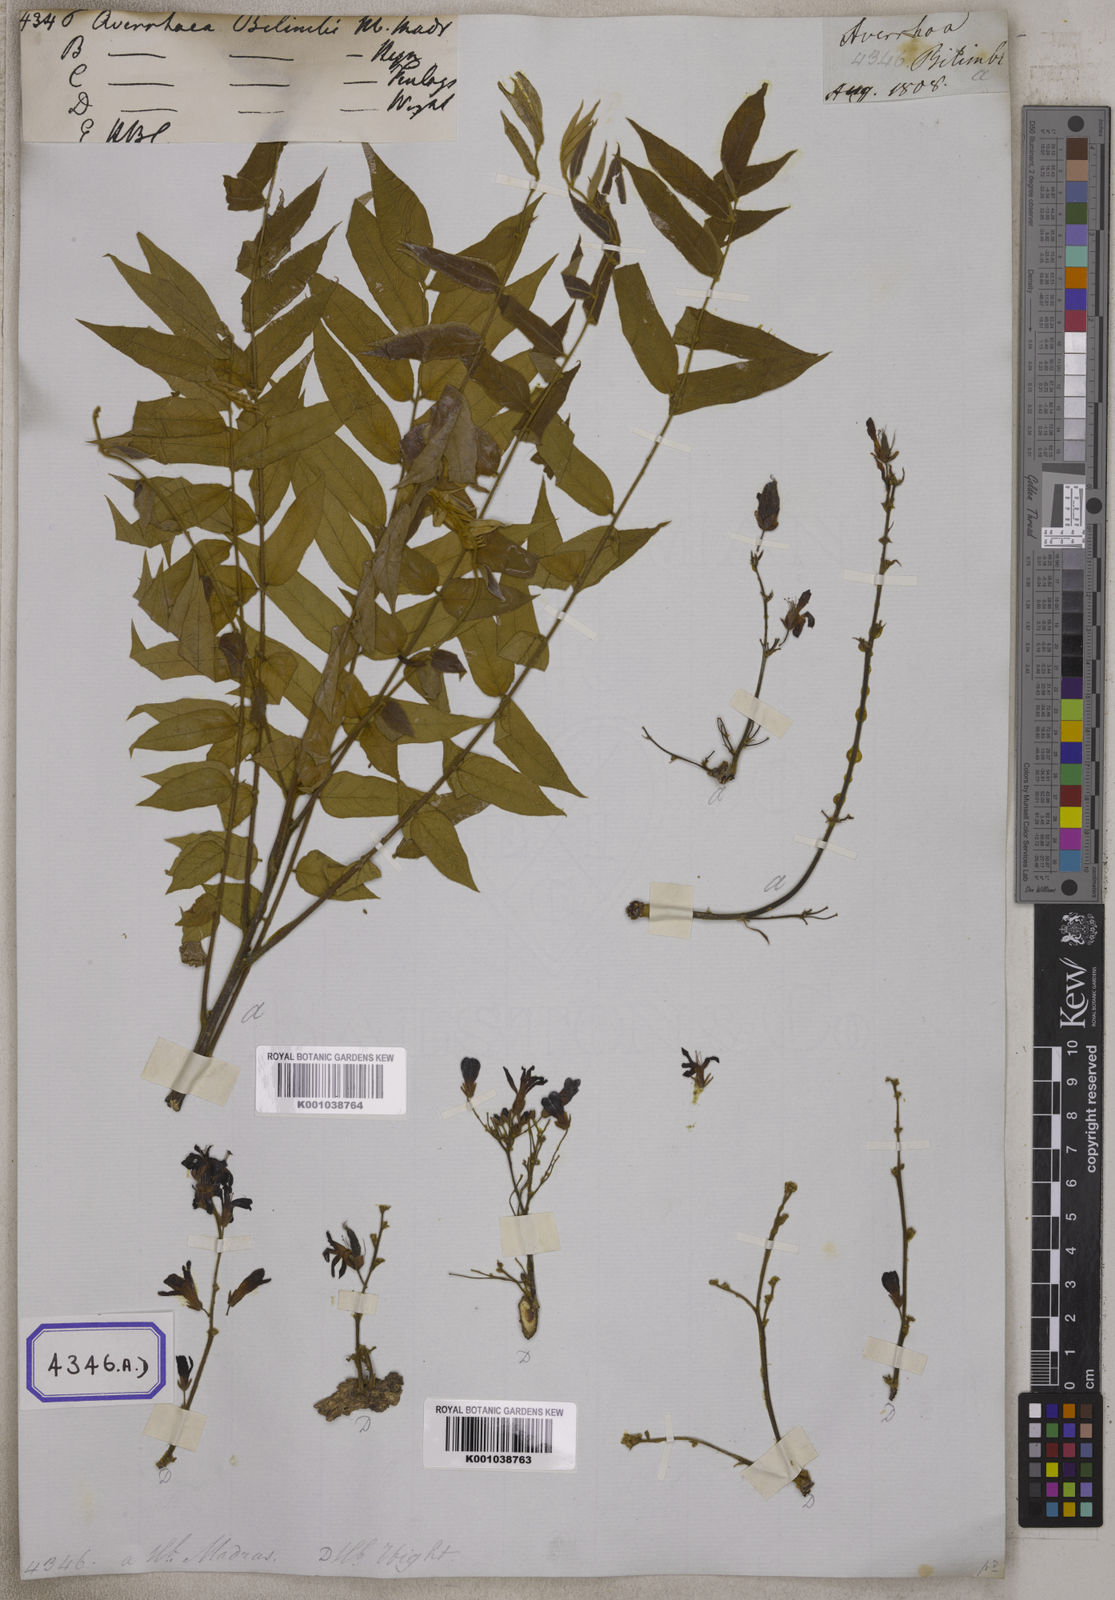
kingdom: Plantae
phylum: Tracheophyta
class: Magnoliopsida
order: Oxalidales
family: Oxalidaceae
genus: Averrhoa
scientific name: Averrhoa bilimbi
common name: Bilimbi
